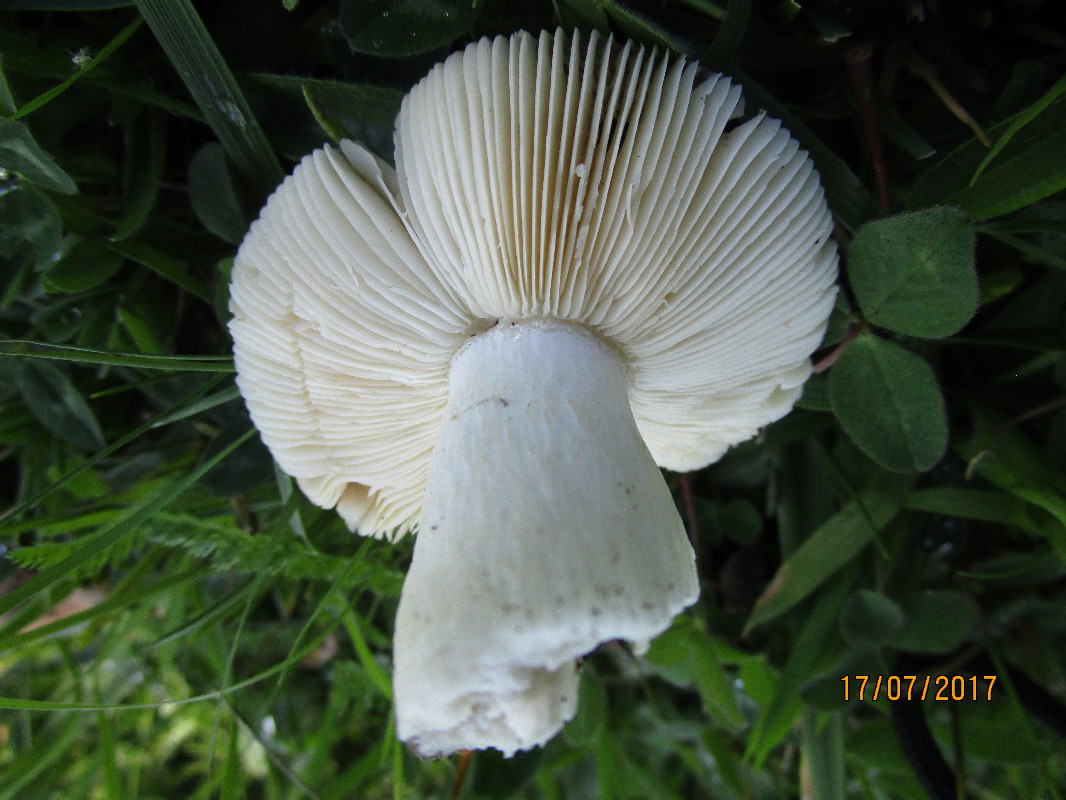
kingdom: Fungi
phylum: Basidiomycota
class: Agaricomycetes
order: Russulales
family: Russulaceae
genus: Russula
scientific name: Russula pseudointegra
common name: cinnoberrød skørhat
